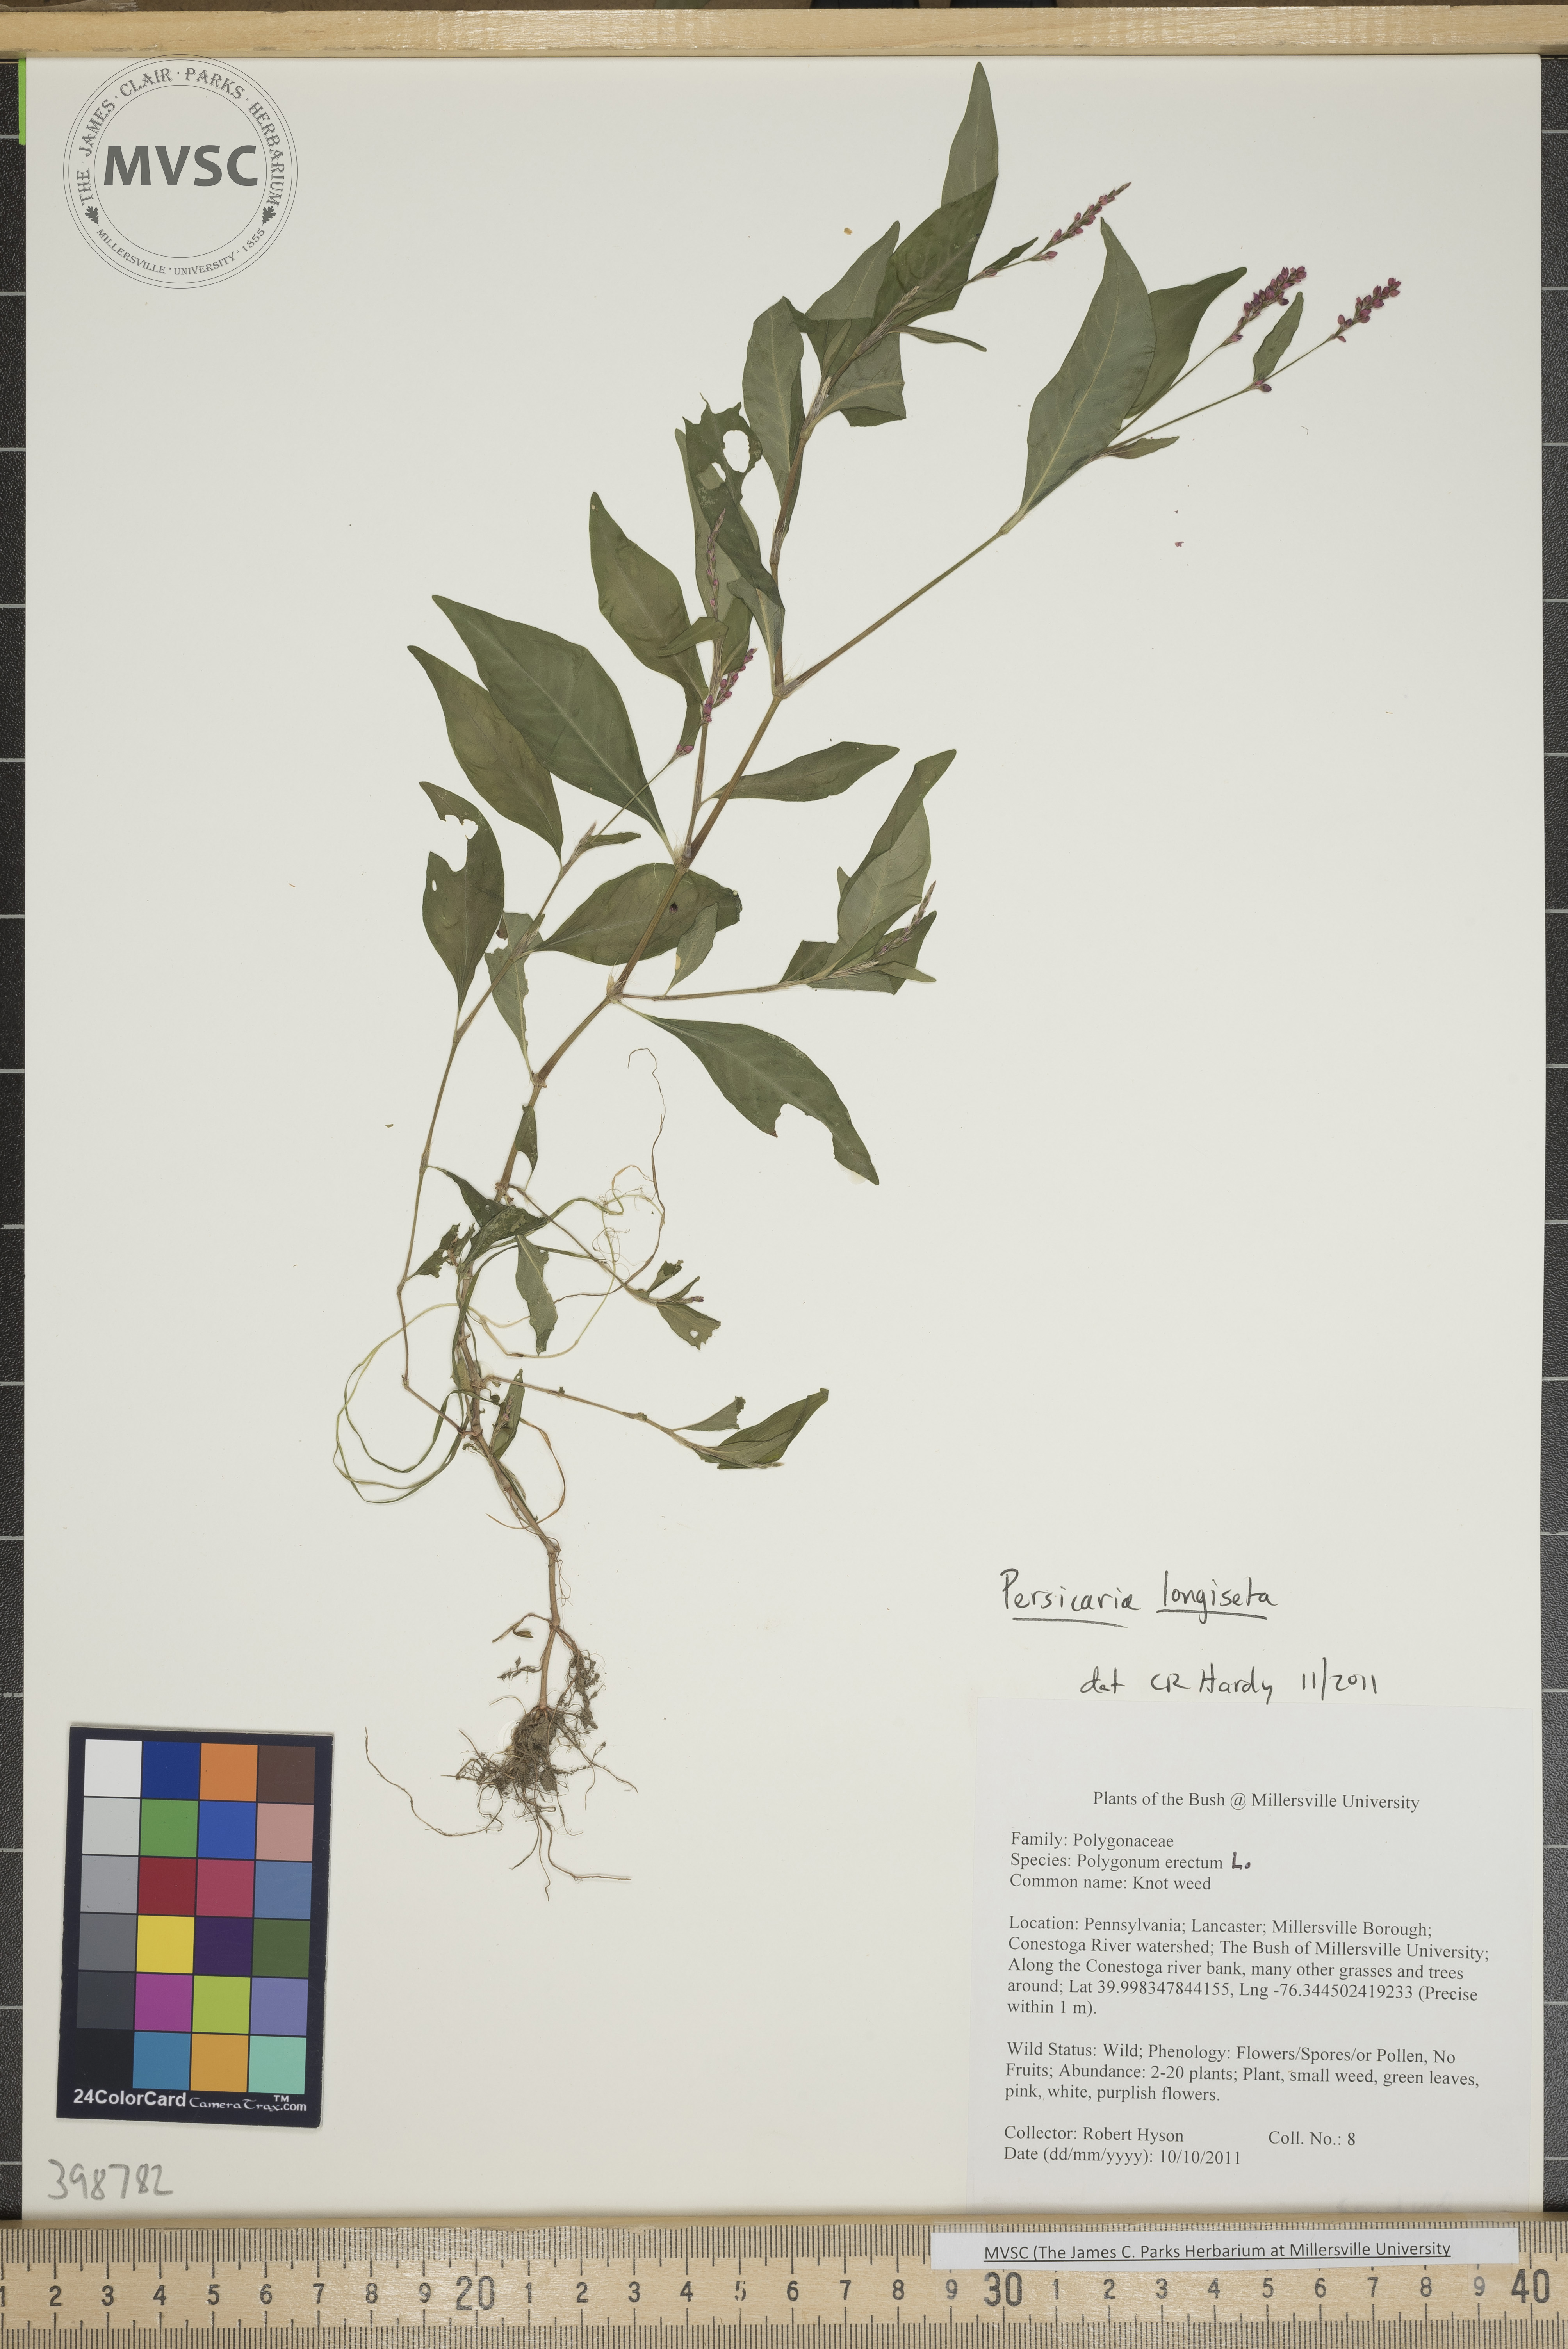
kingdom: Plantae
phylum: Tracheophyta
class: Magnoliopsida
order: Caryophyllales
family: Polygonaceae
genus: Persicaria
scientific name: Persicaria longiseta
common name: Low smartweed
